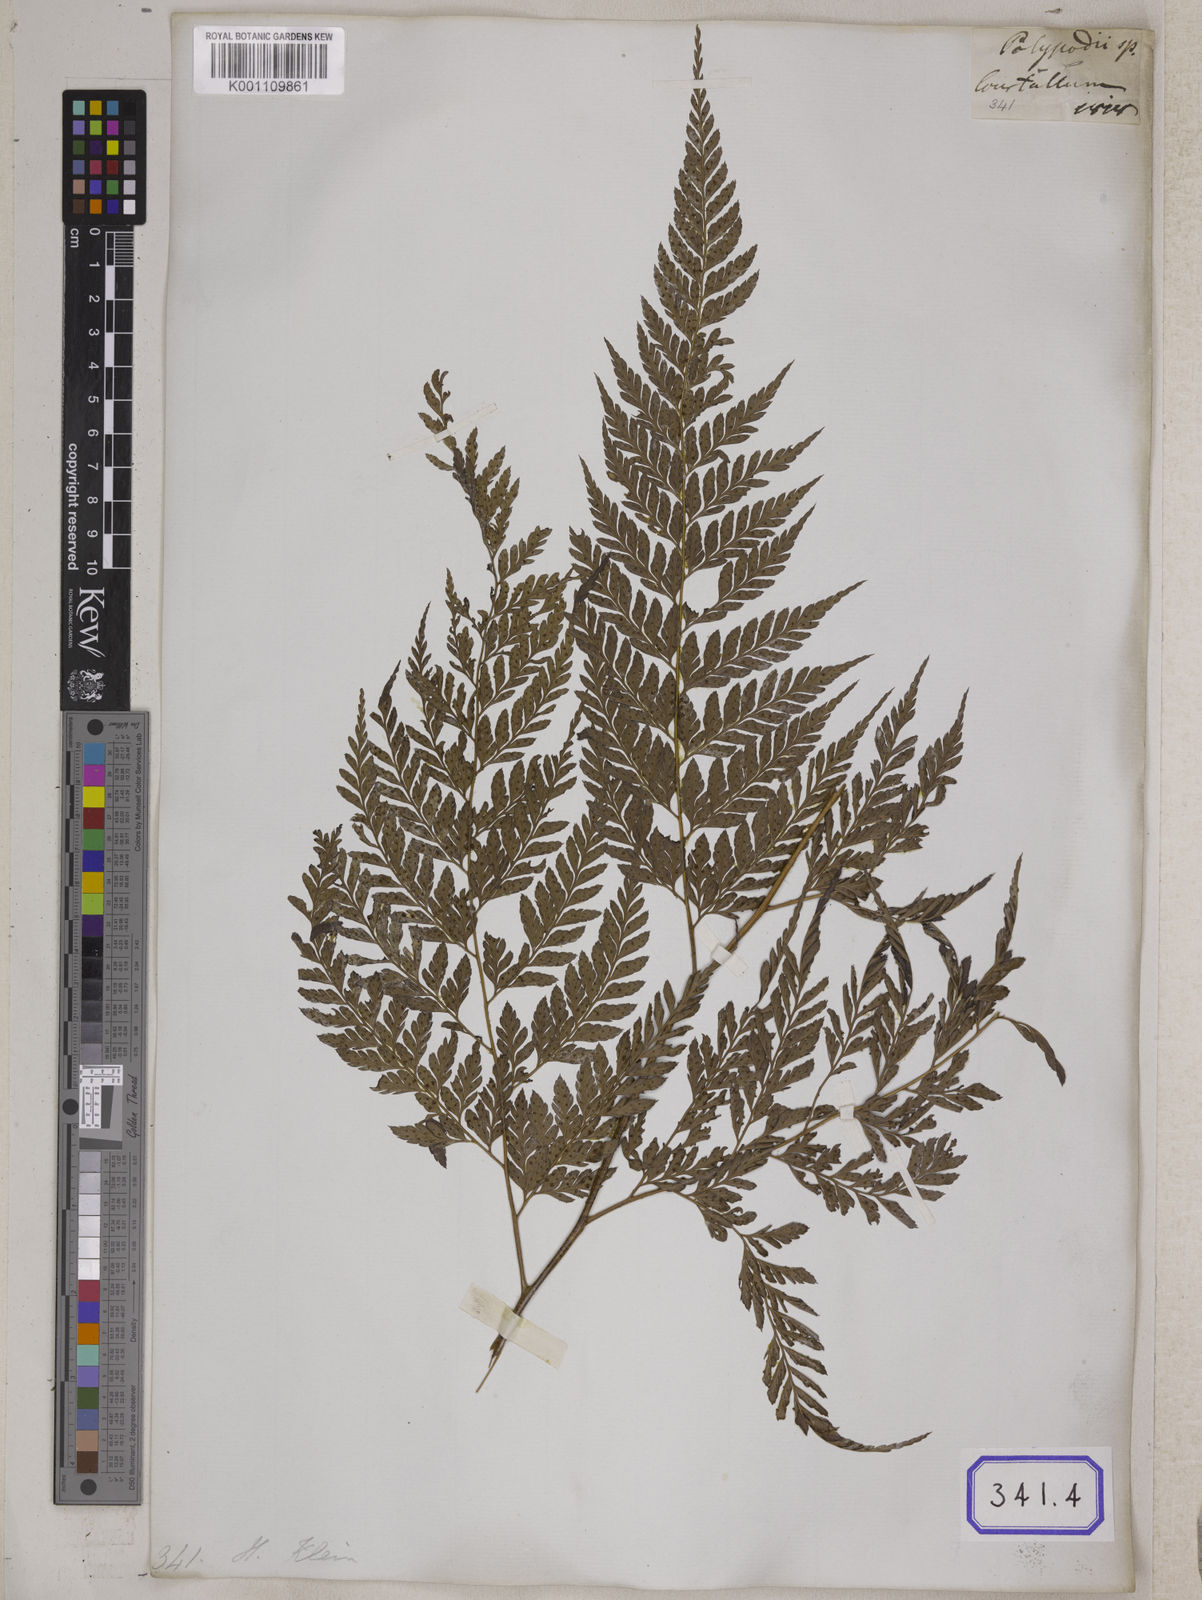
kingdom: Plantae
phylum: Tracheophyta
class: Polypodiopsida
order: Polypodiales
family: Dryopteridaceae
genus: Arachniodes
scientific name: Arachniodes coniifolia
